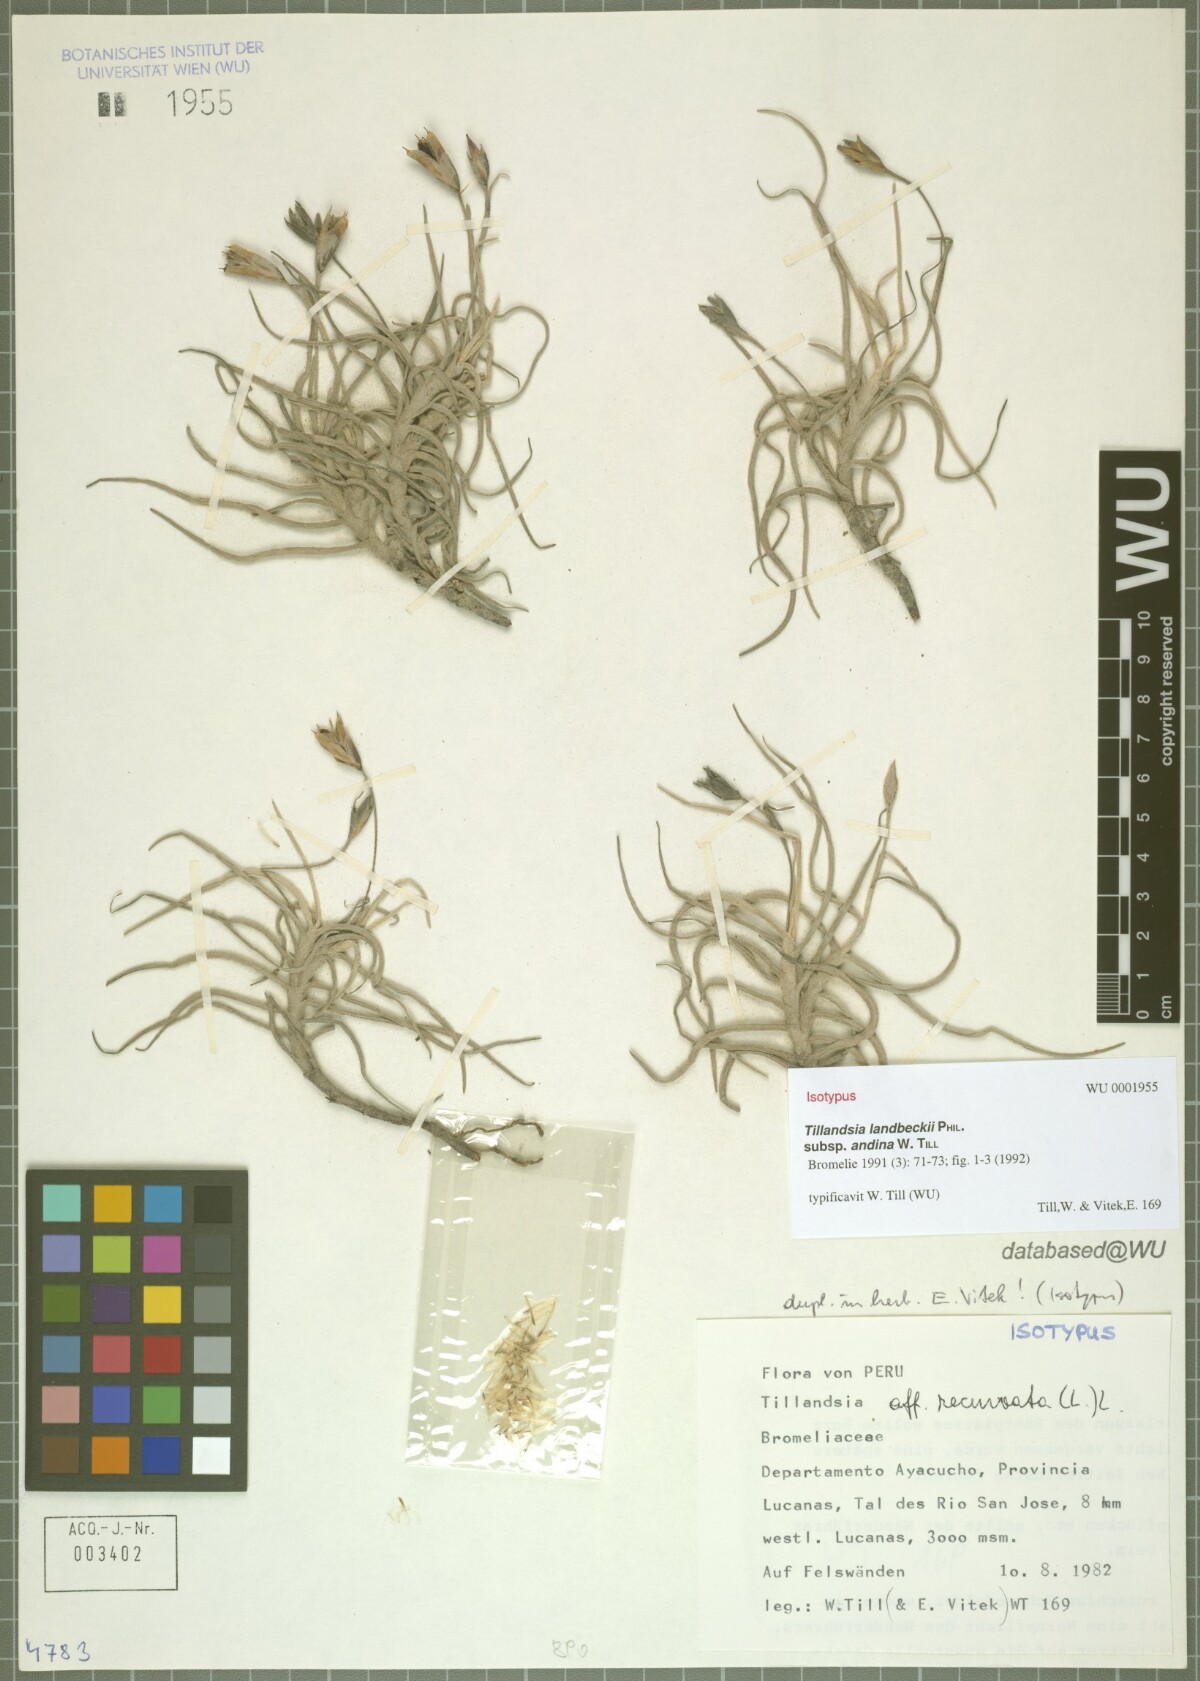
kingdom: Plantae
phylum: Tracheophyta
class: Liliopsida
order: Poales
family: Bromeliaceae
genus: Tillandsia
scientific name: Tillandsia landbeckii
